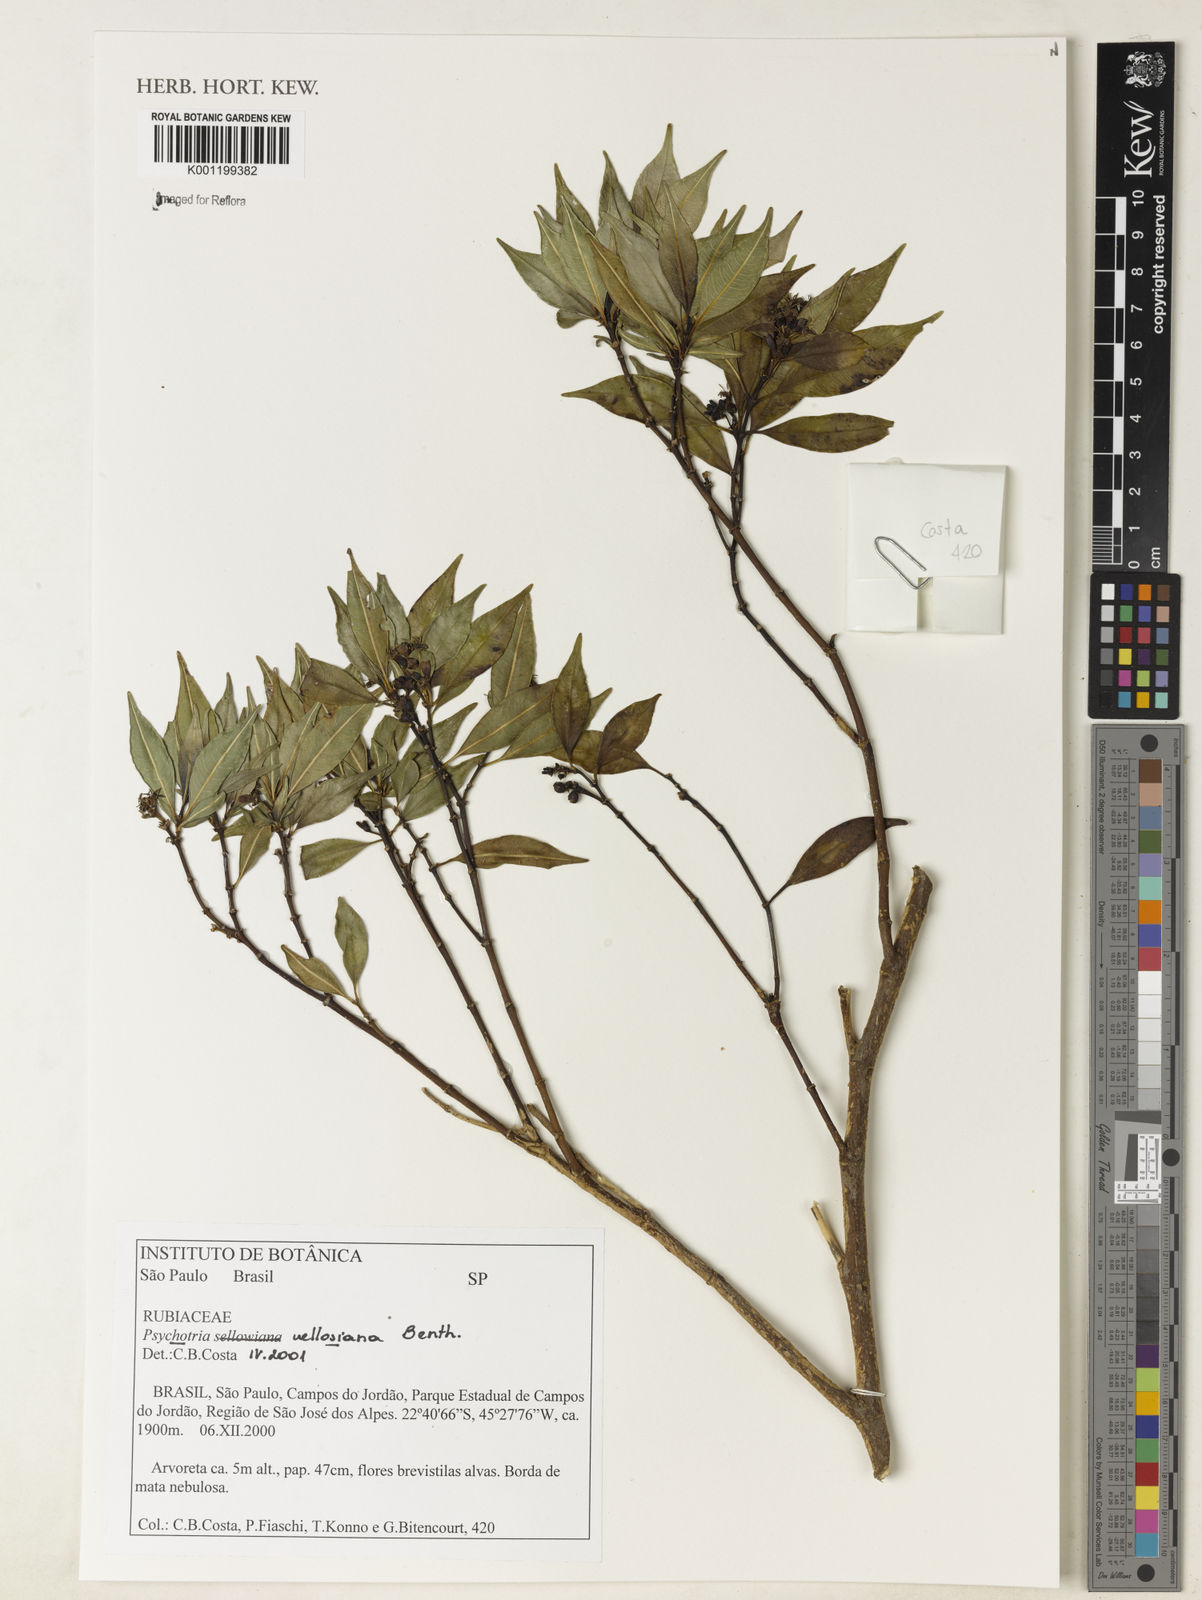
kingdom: Plantae
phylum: Tracheophyta
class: Magnoliopsida
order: Gentianales
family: Rubiaceae
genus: Palicourea
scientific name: Palicourea sessilis
